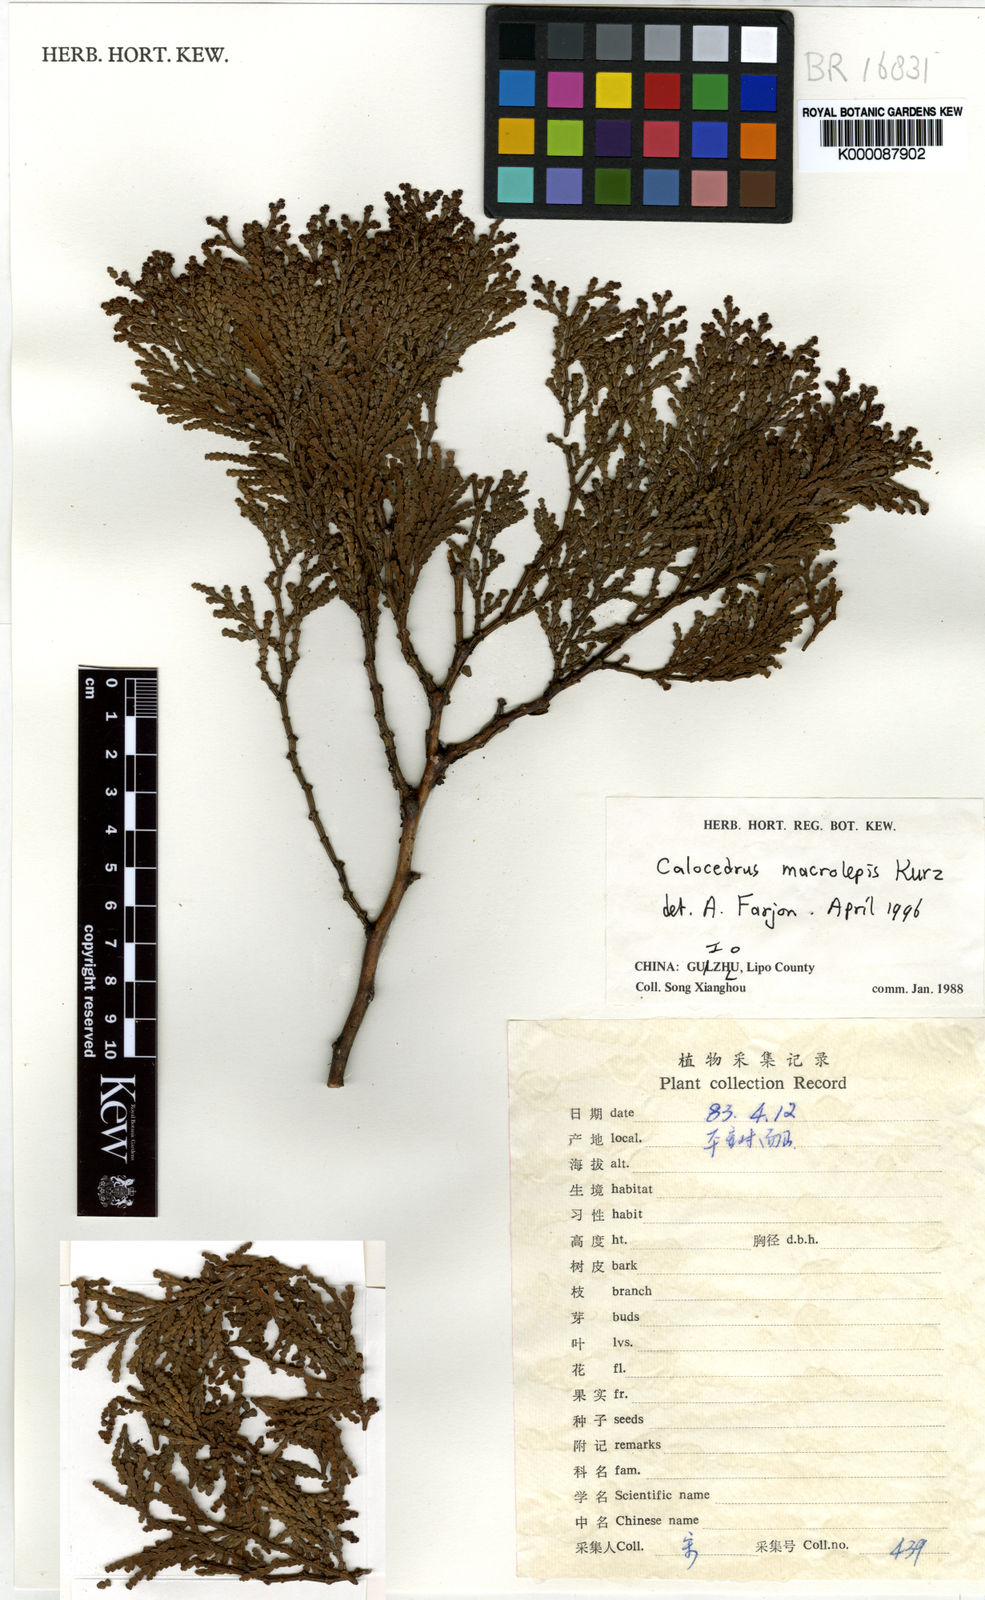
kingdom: Plantae
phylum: Tracheophyta
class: Pinopsida
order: Pinales
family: Cupressaceae
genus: Calocedrus
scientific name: Calocedrus macrolepis
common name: Chinese incense-cedar
